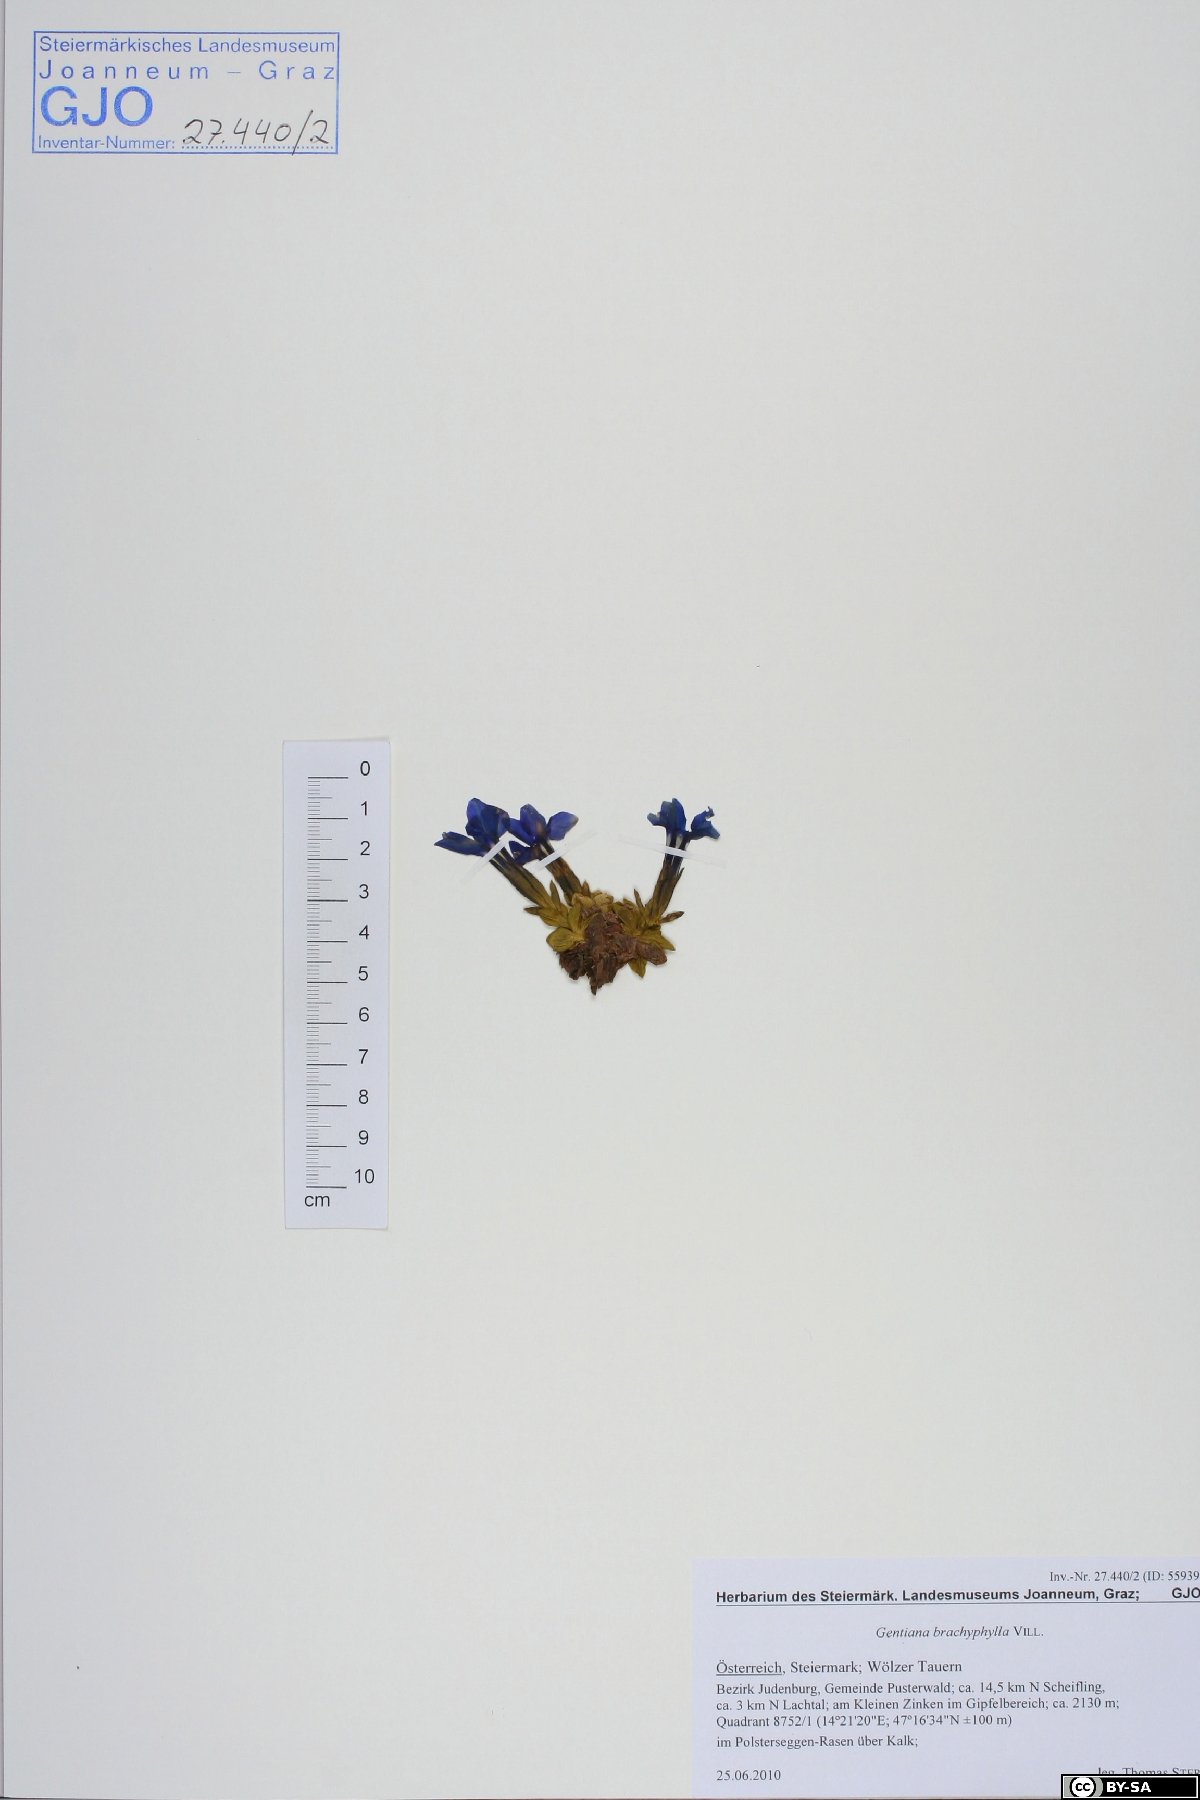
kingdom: Plantae
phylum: Tracheophyta
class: Magnoliopsida
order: Gentianales
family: Gentianaceae
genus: Gentiana
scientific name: Gentiana brachyphylla
